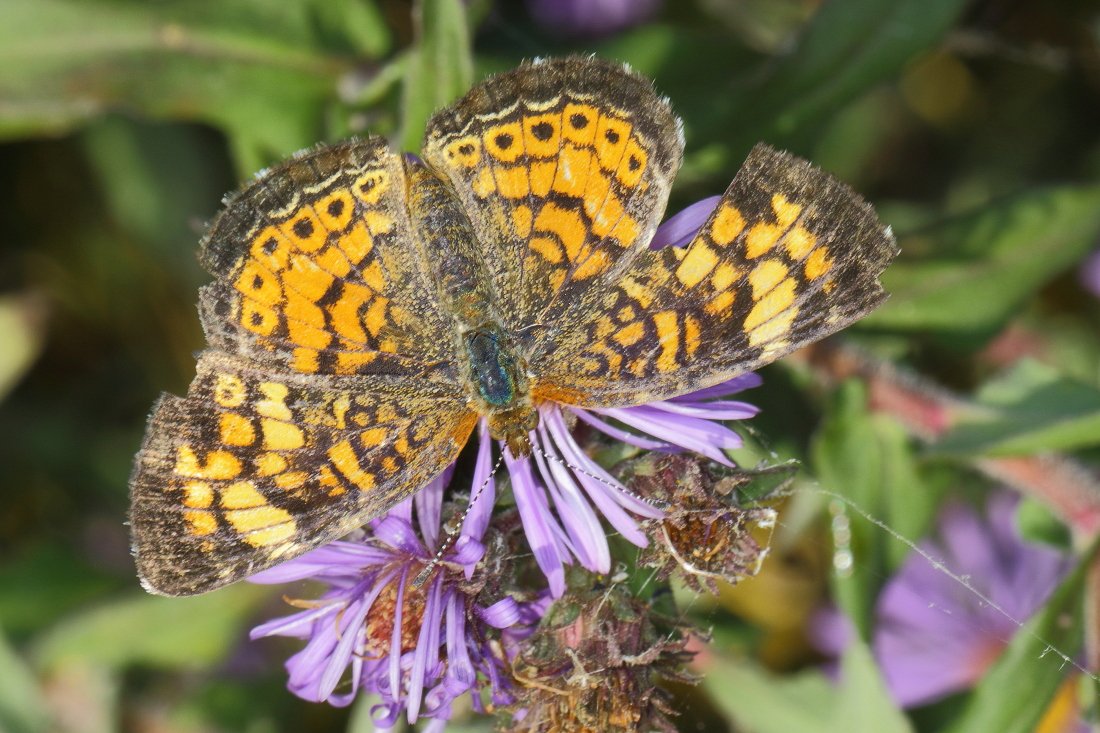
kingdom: Animalia
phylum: Arthropoda
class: Insecta
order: Lepidoptera
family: Nymphalidae
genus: Phyciodes
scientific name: Phyciodes tharos
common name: Pearl Crescent
